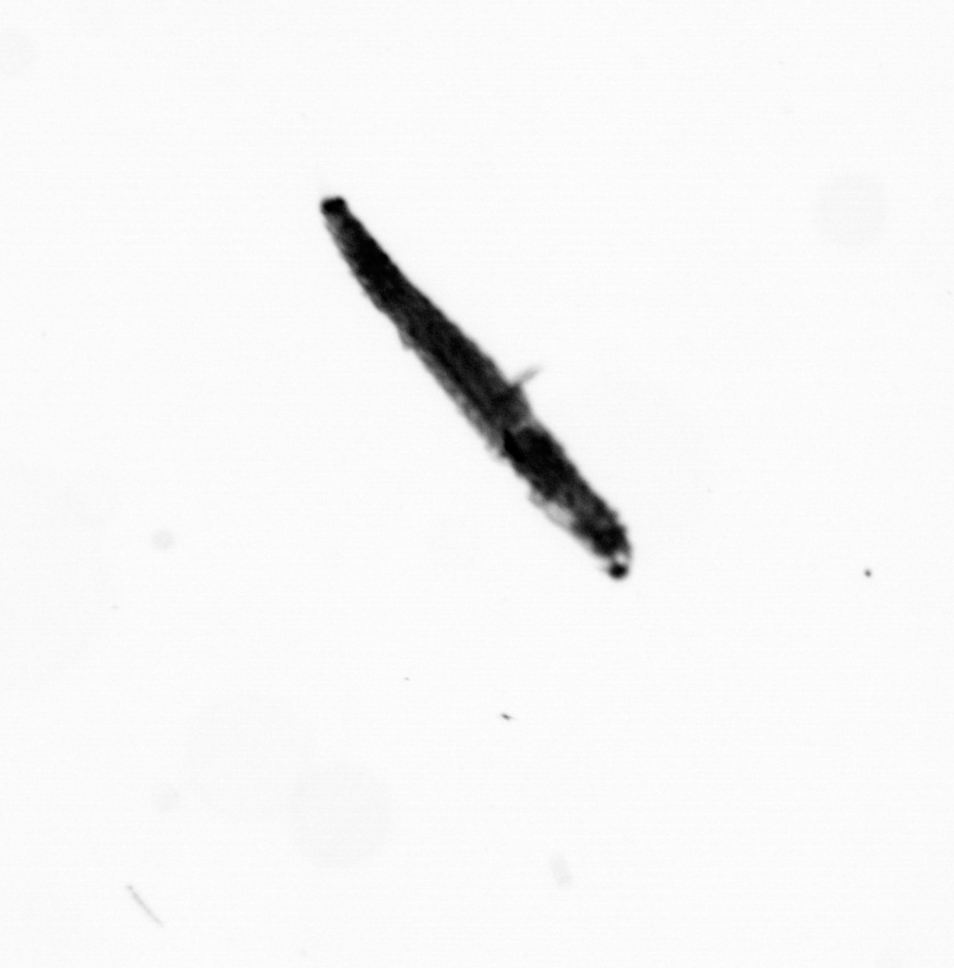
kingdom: Animalia
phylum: Annelida
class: Polychaeta
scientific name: Polychaeta
